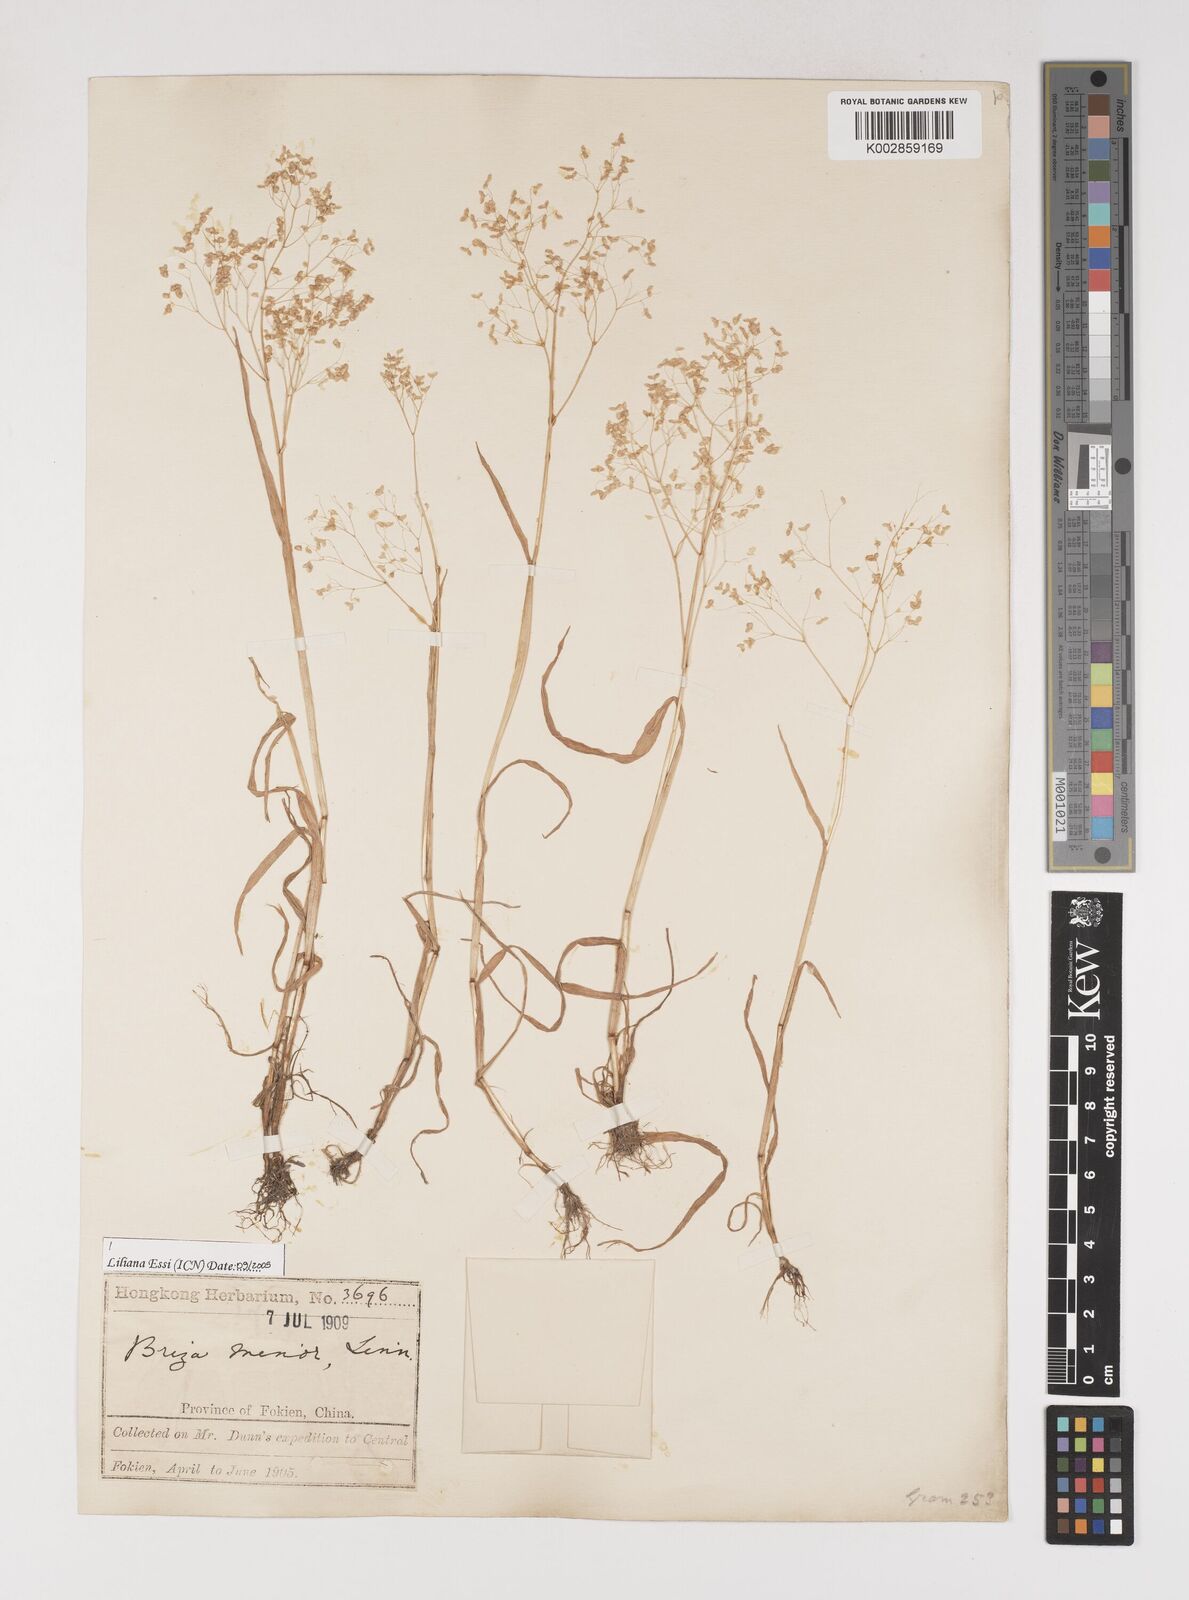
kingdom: Plantae
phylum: Tracheophyta
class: Liliopsida
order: Poales
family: Poaceae
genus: Briza
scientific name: Briza minor
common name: Lesser quaking-grass
